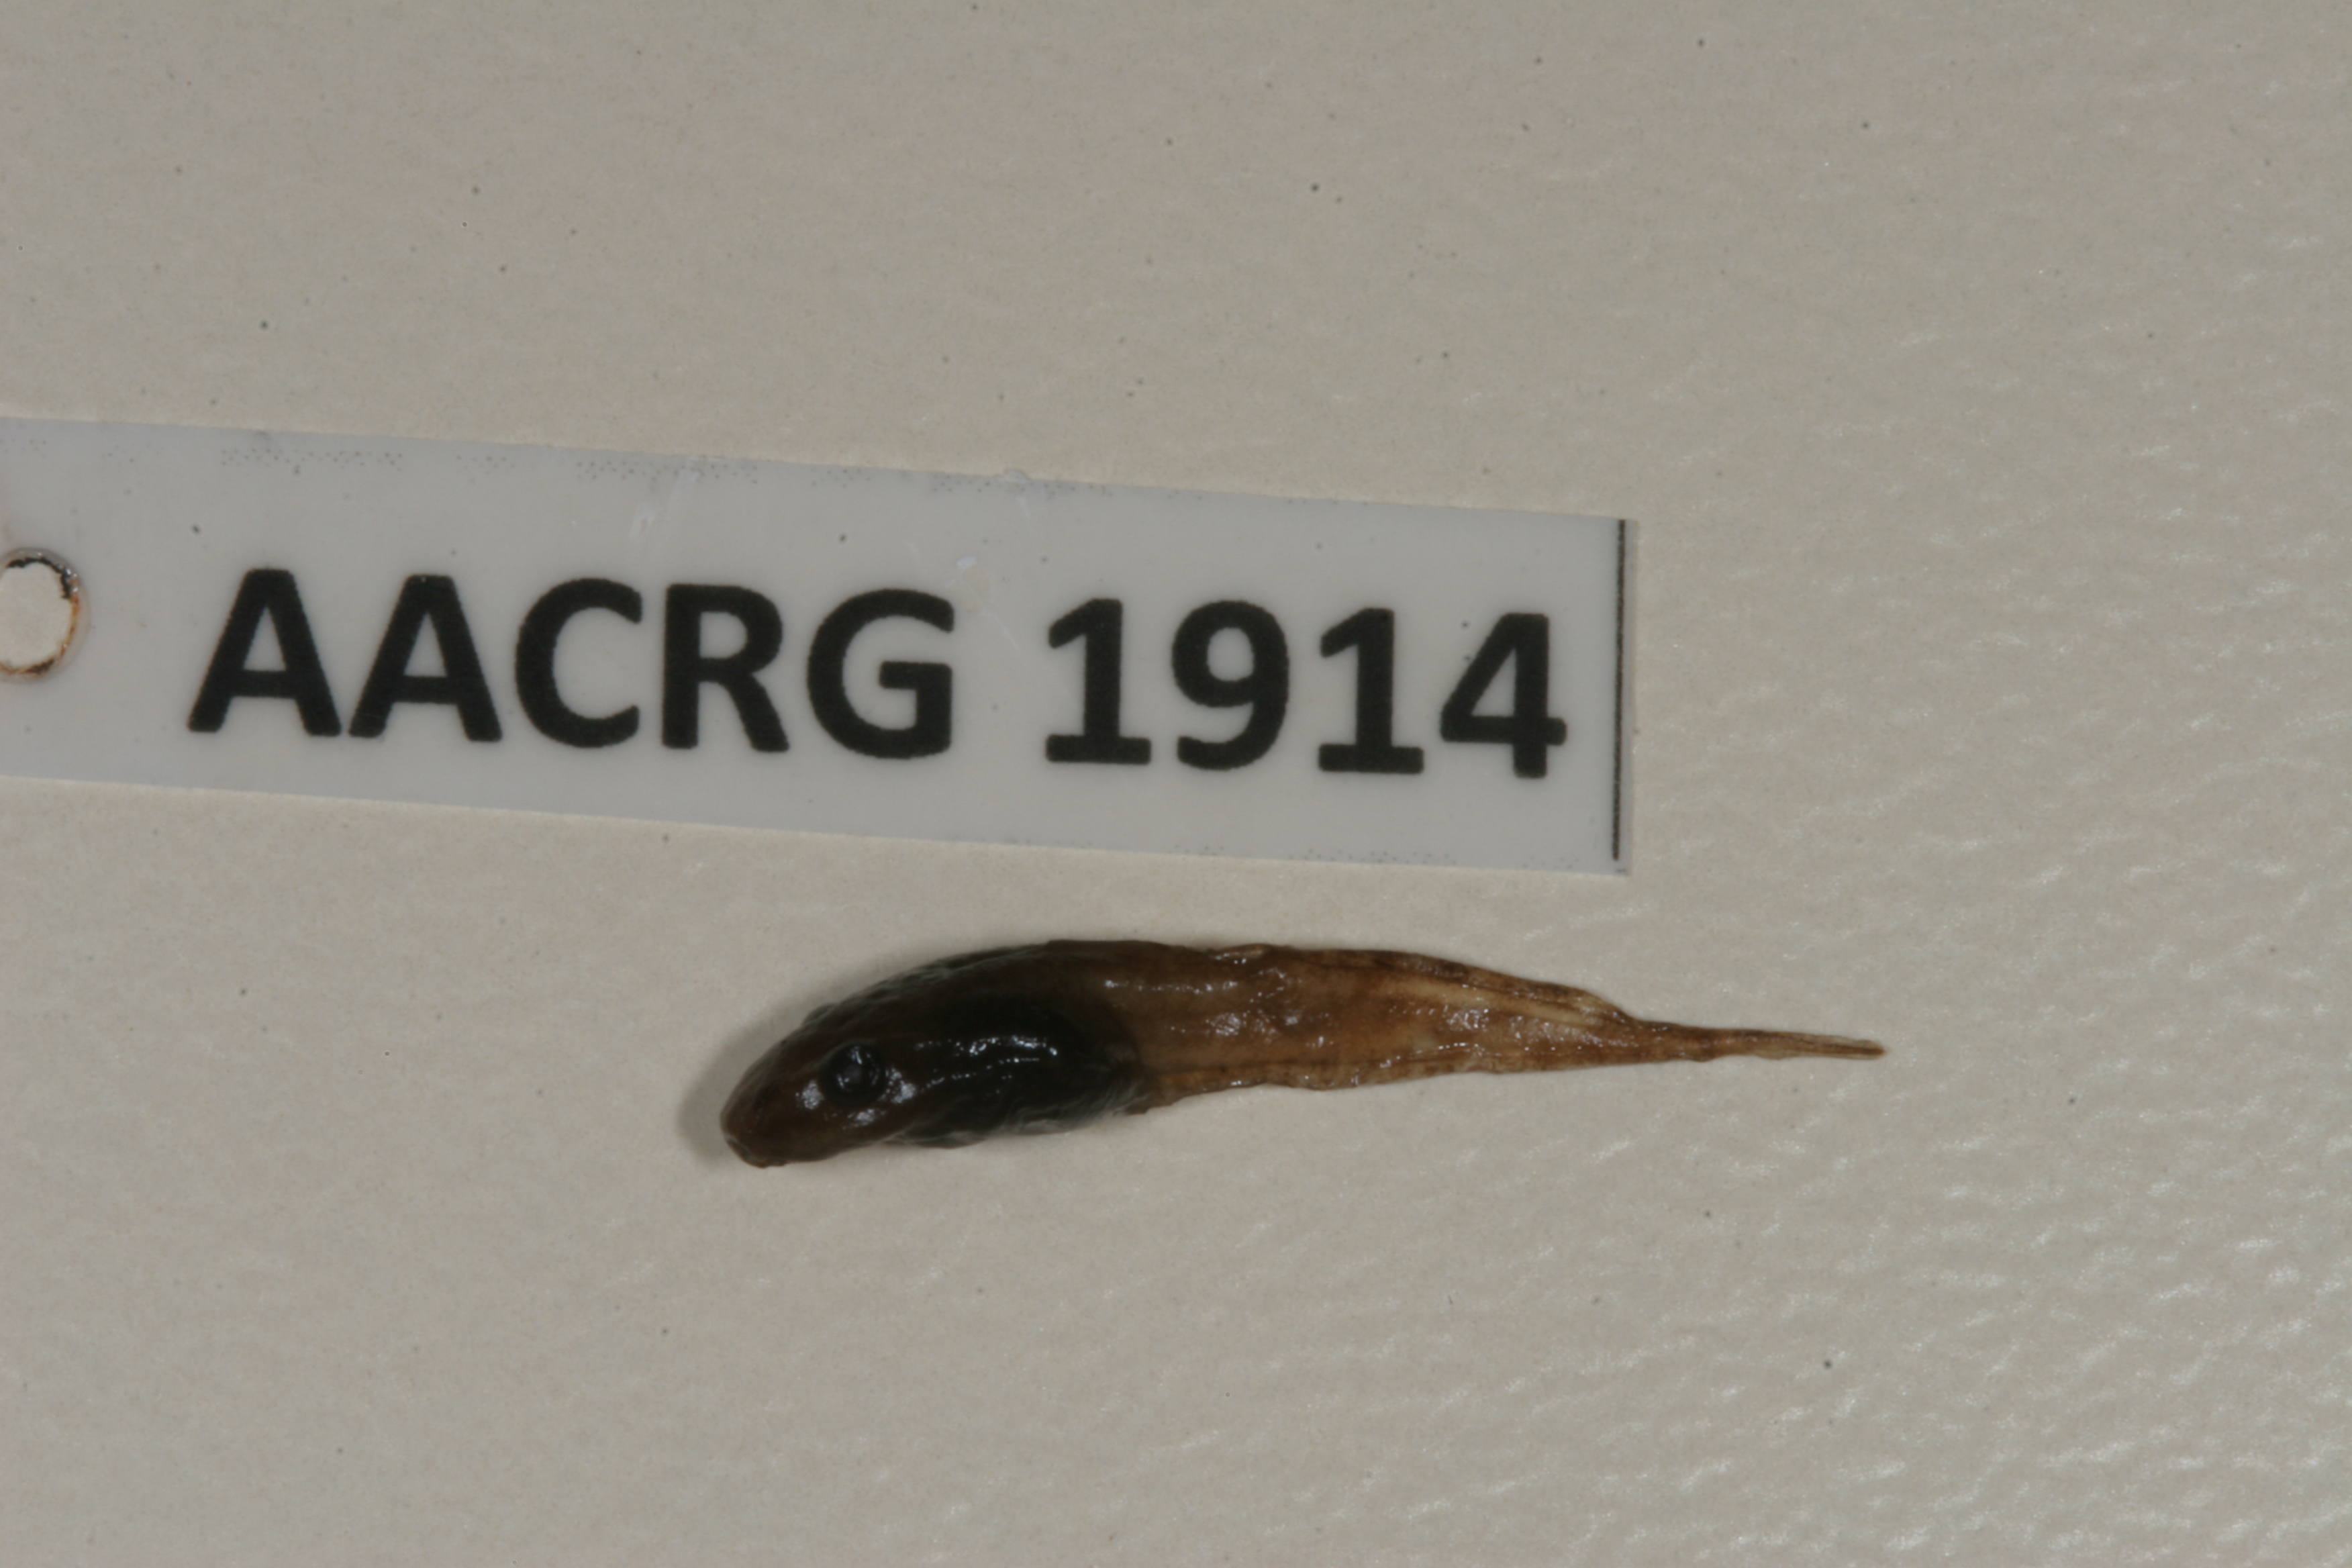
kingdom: Animalia
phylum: Chordata
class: Amphibia
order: Anura
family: Hemisotidae
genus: Hemisus
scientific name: Hemisus guineensis
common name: Guinea snout-burrower
